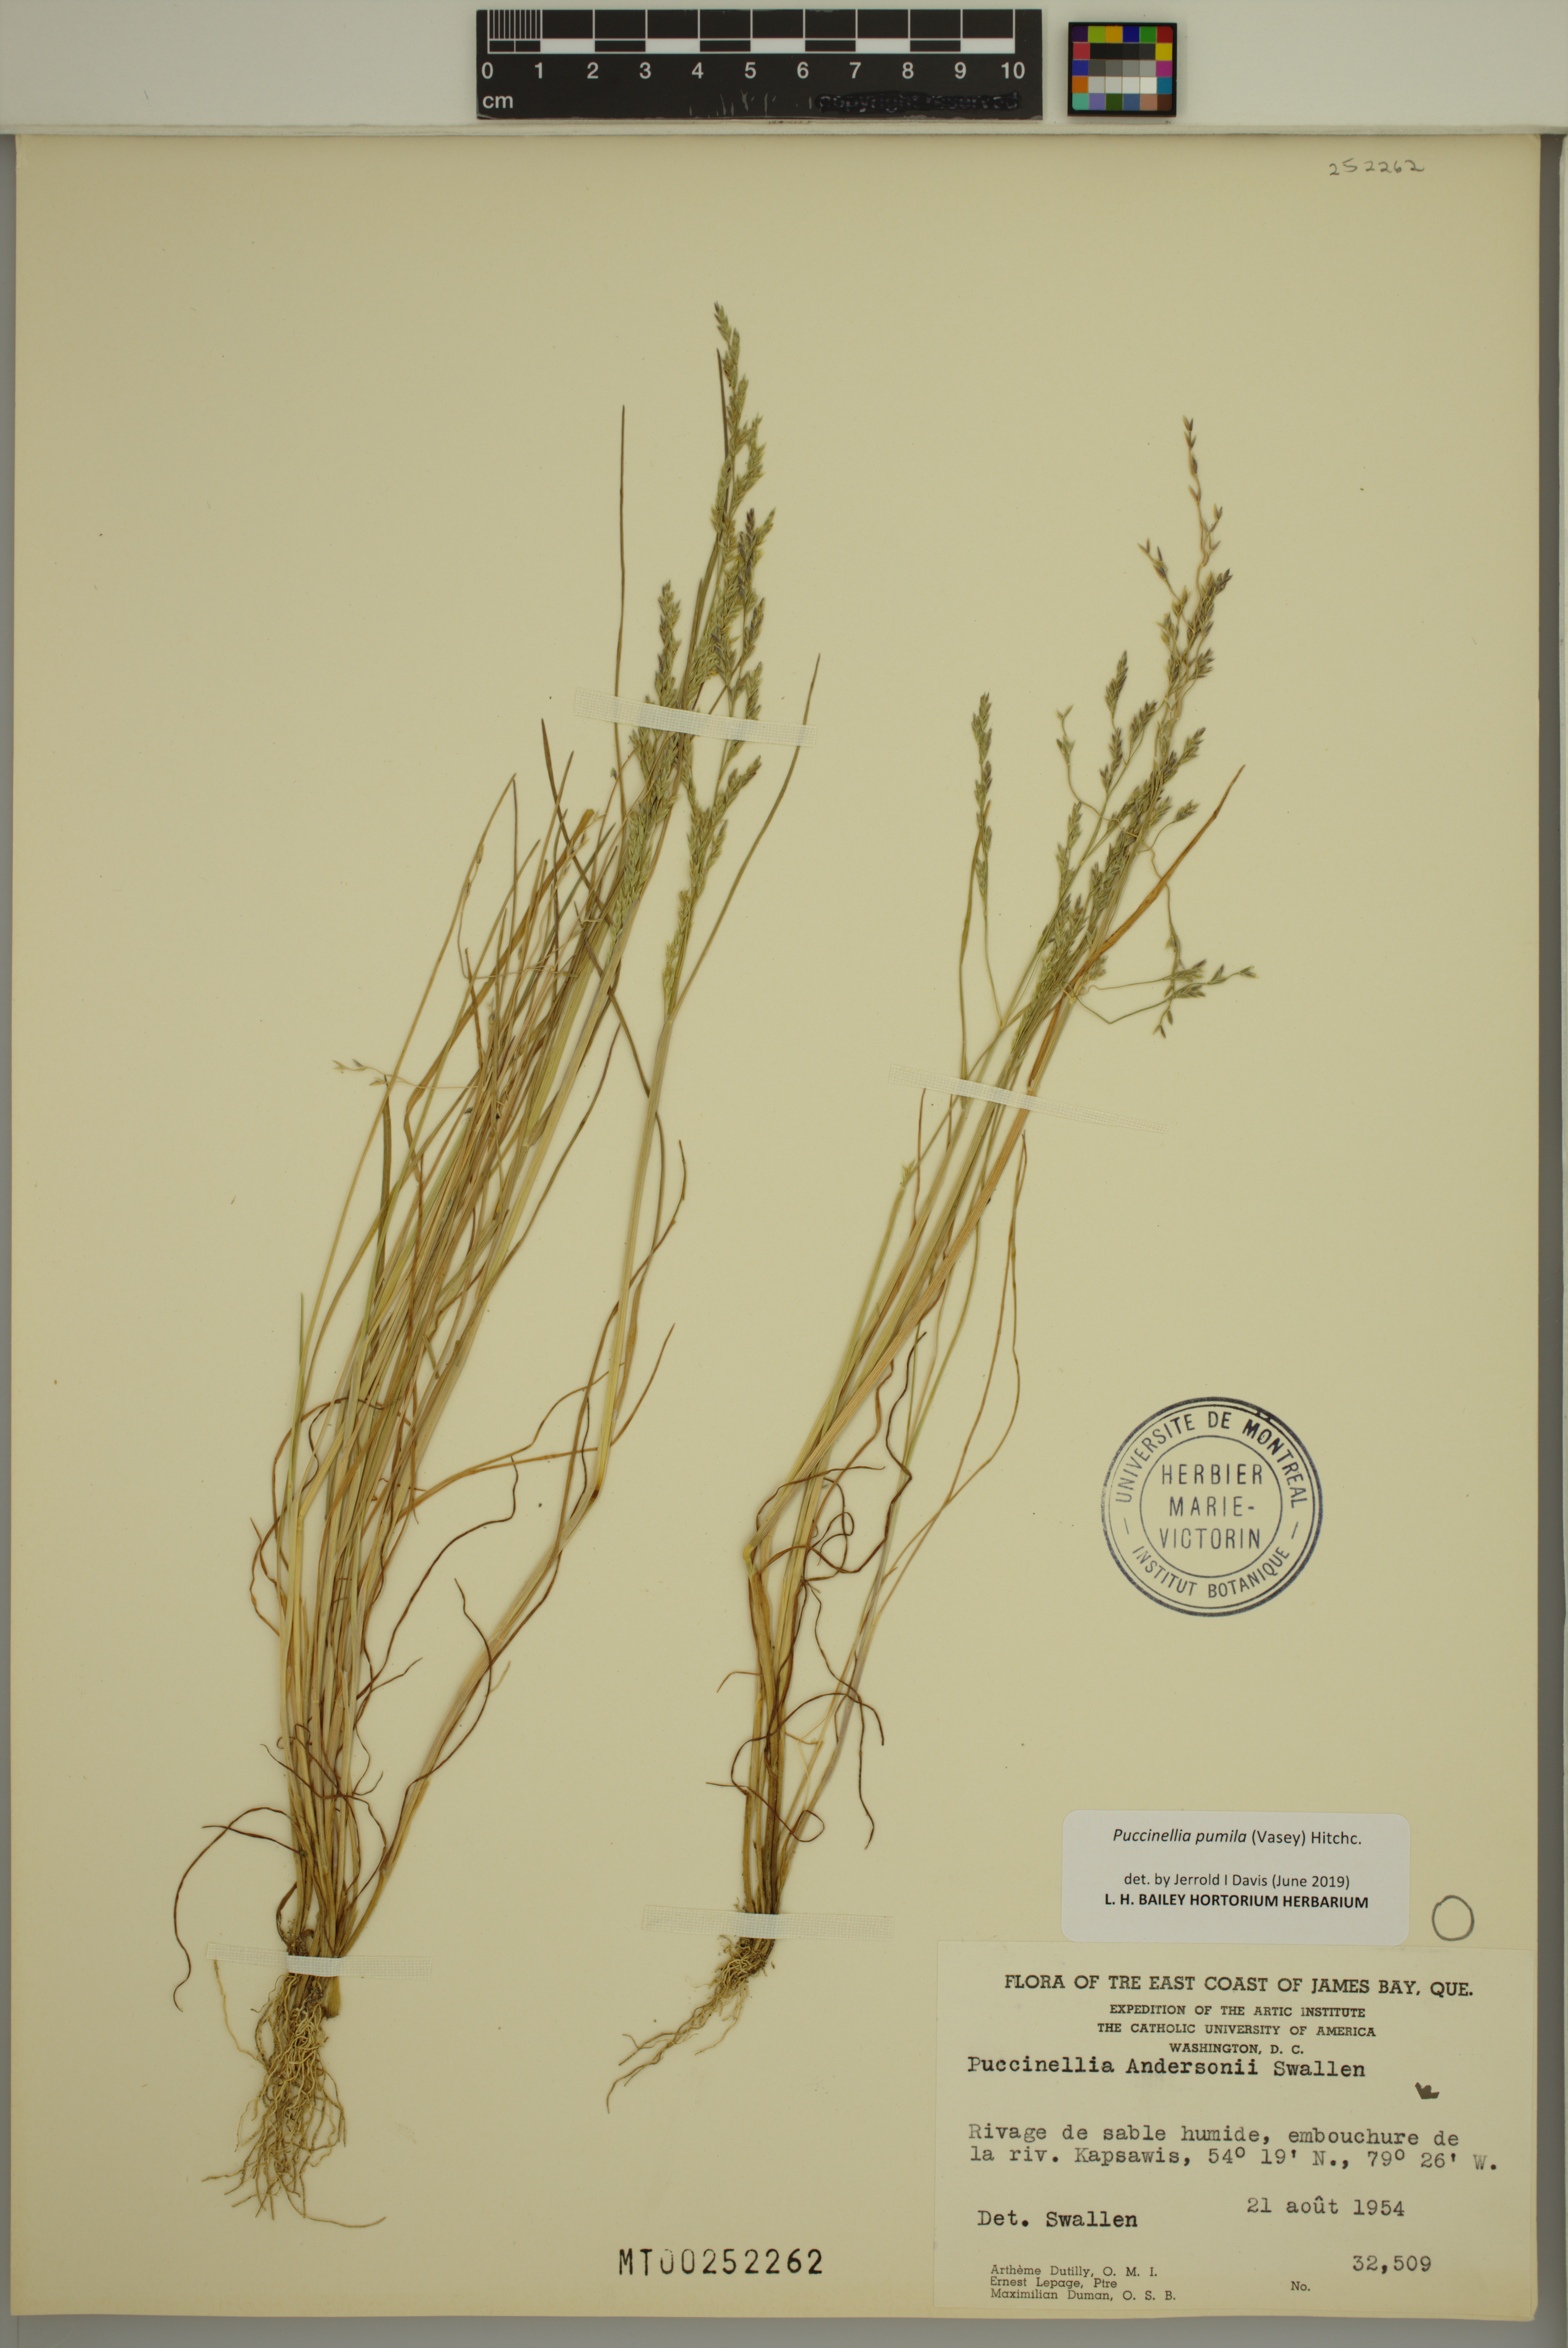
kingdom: Plantae
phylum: Tracheophyta
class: Liliopsida
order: Poales
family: Poaceae
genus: Puccinellia
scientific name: Puccinellia pumila
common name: Dwarf alkaligrass
